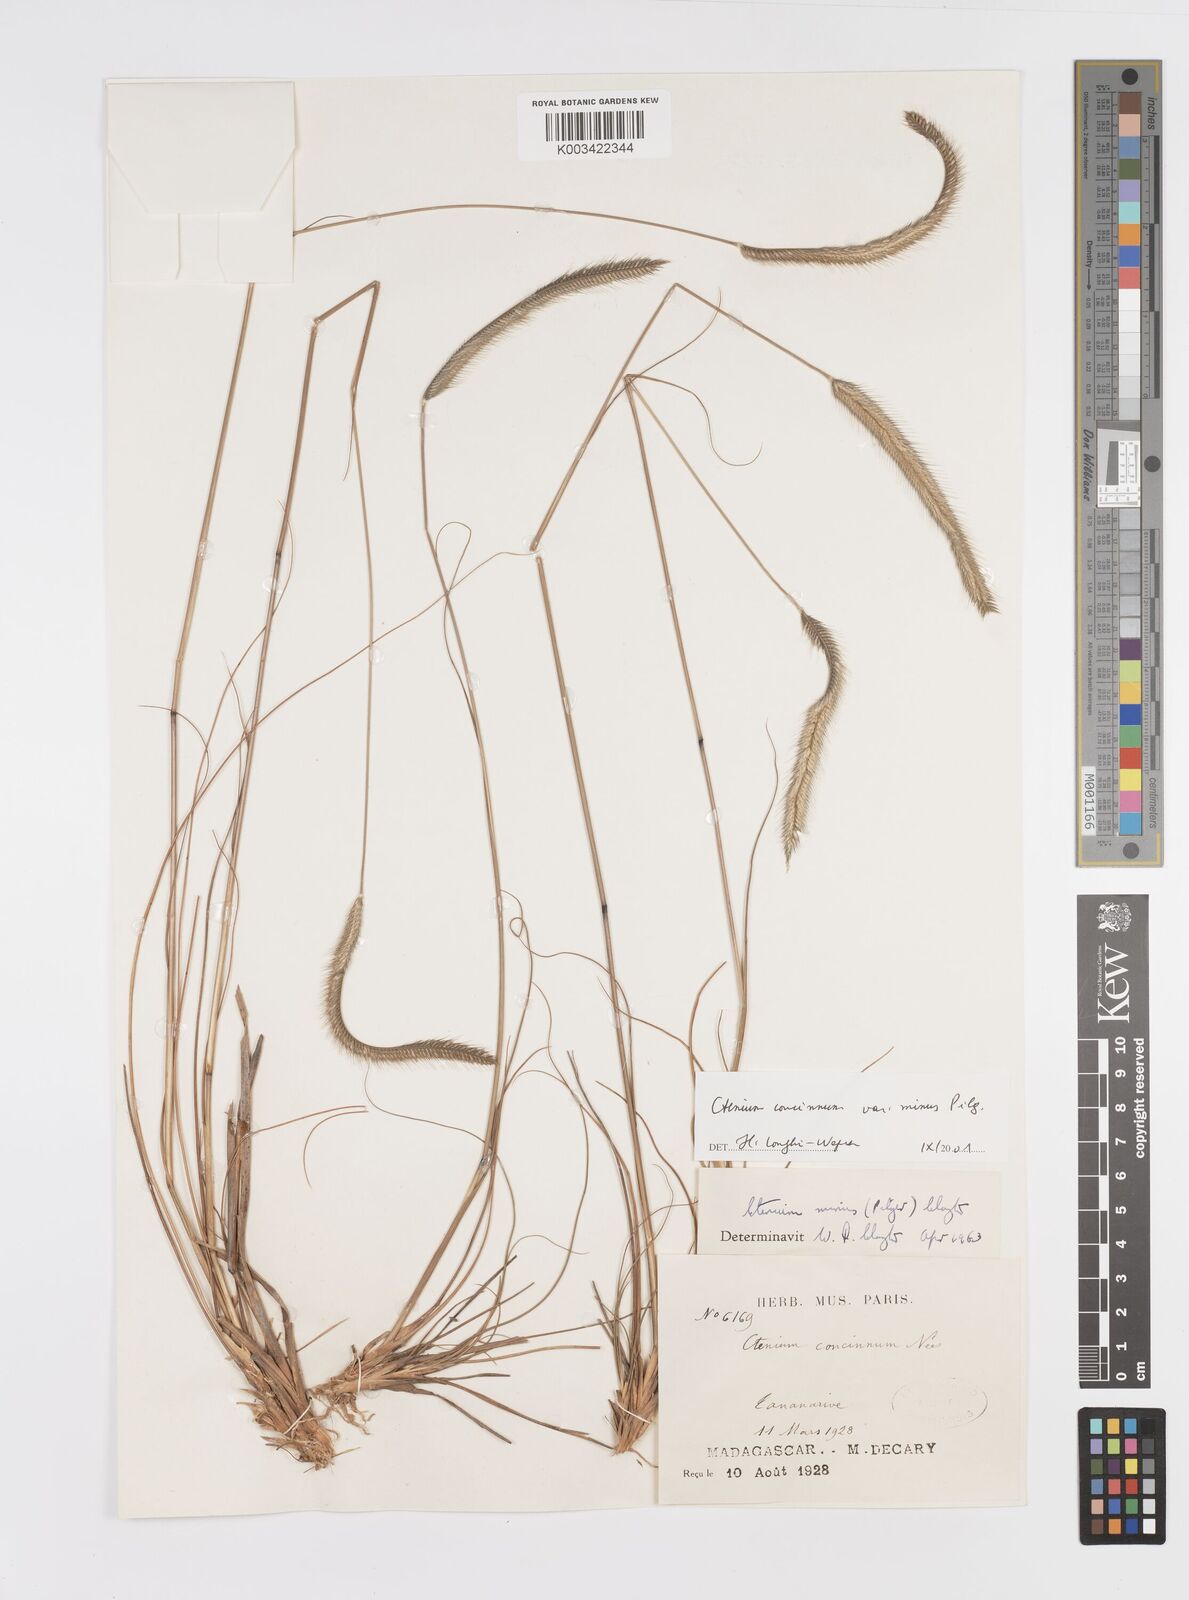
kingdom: Plantae
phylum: Tracheophyta
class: Liliopsida
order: Poales
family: Poaceae
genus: Ctenium
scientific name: Ctenium concinnum
